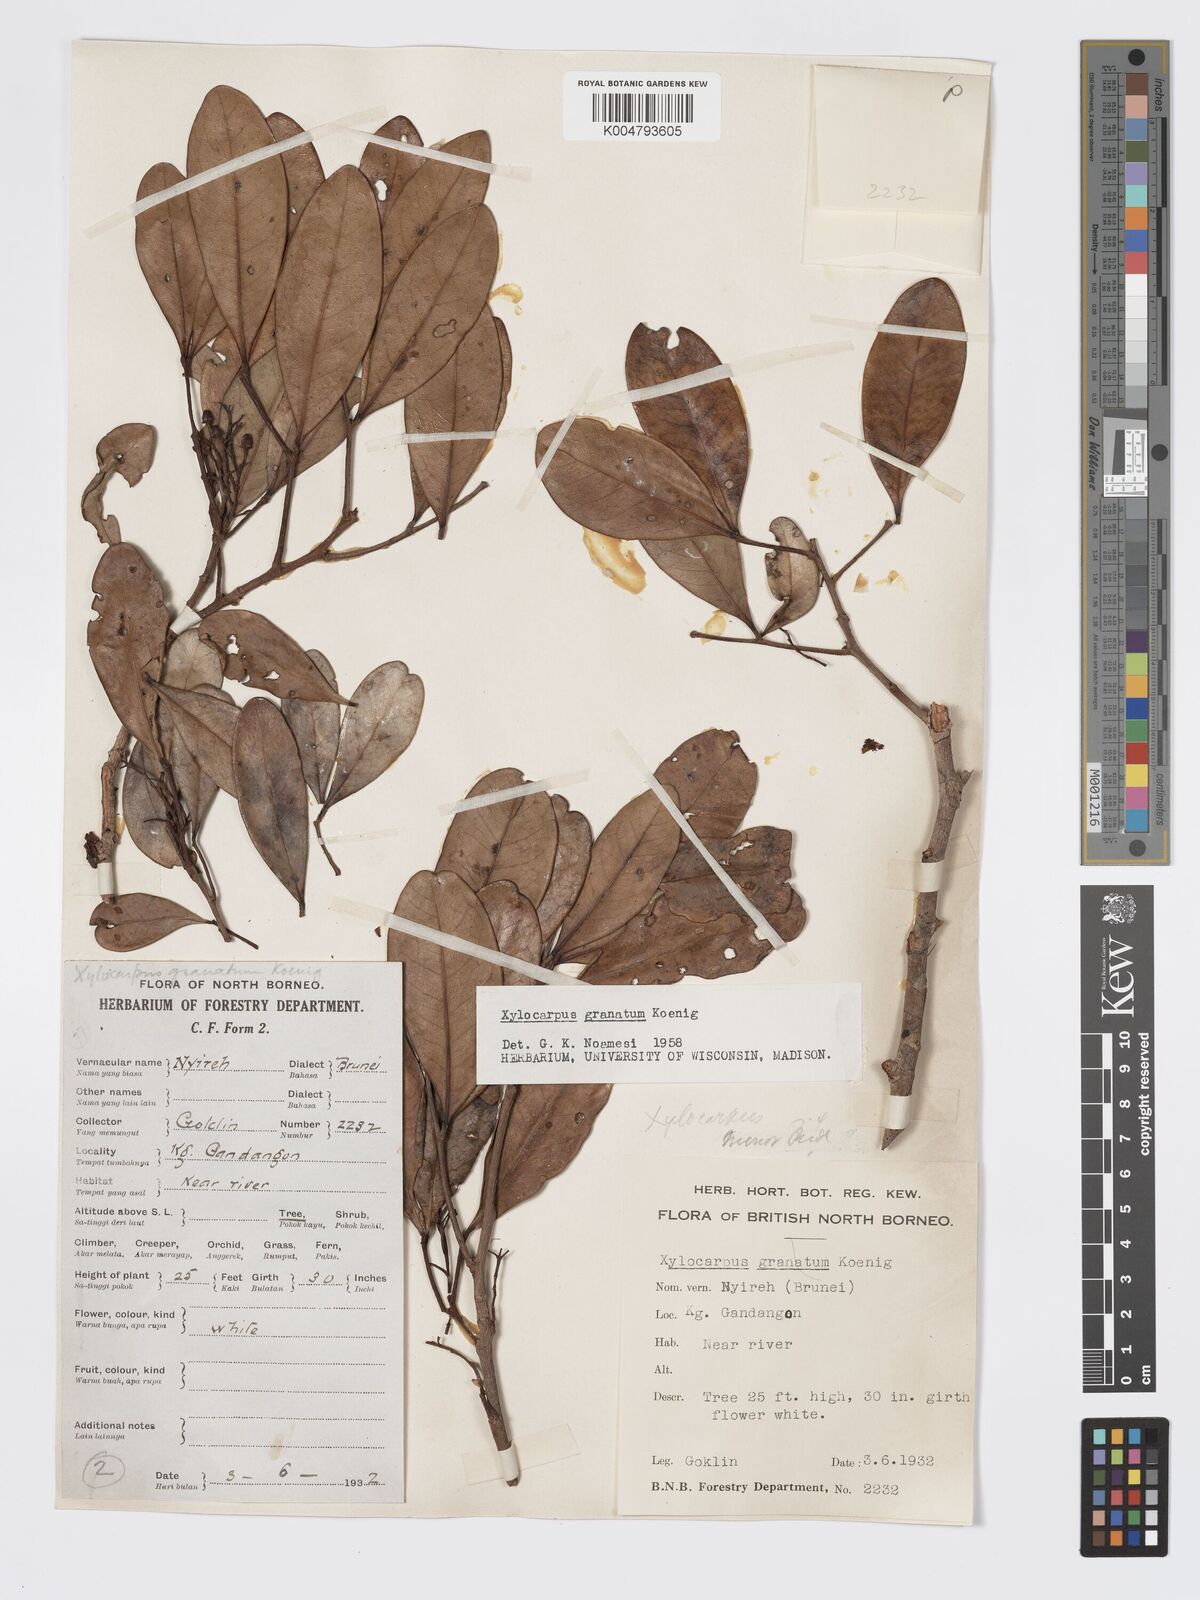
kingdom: Plantae
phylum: Tracheophyta
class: Magnoliopsida
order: Sapindales
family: Meliaceae
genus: Xylocarpus
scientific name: Xylocarpus granatum
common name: Apple mangrove
